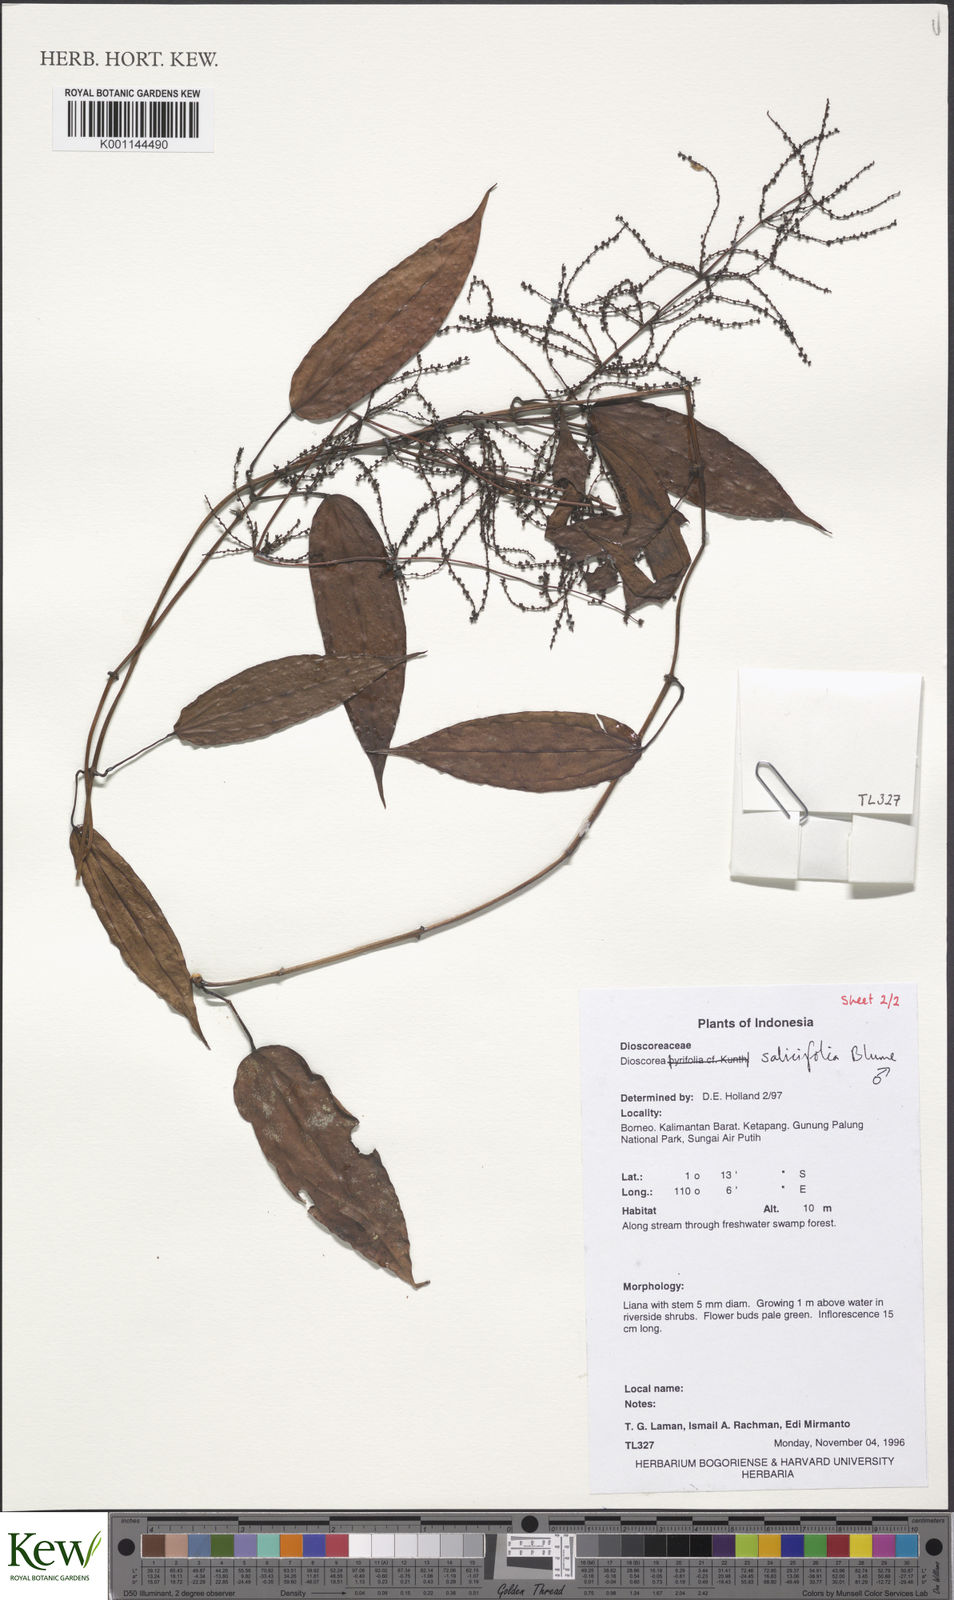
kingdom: Plantae
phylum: Tracheophyta
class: Liliopsida
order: Dioscoreales
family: Dioscoreaceae
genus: Dioscorea
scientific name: Dioscorea salicifolia
